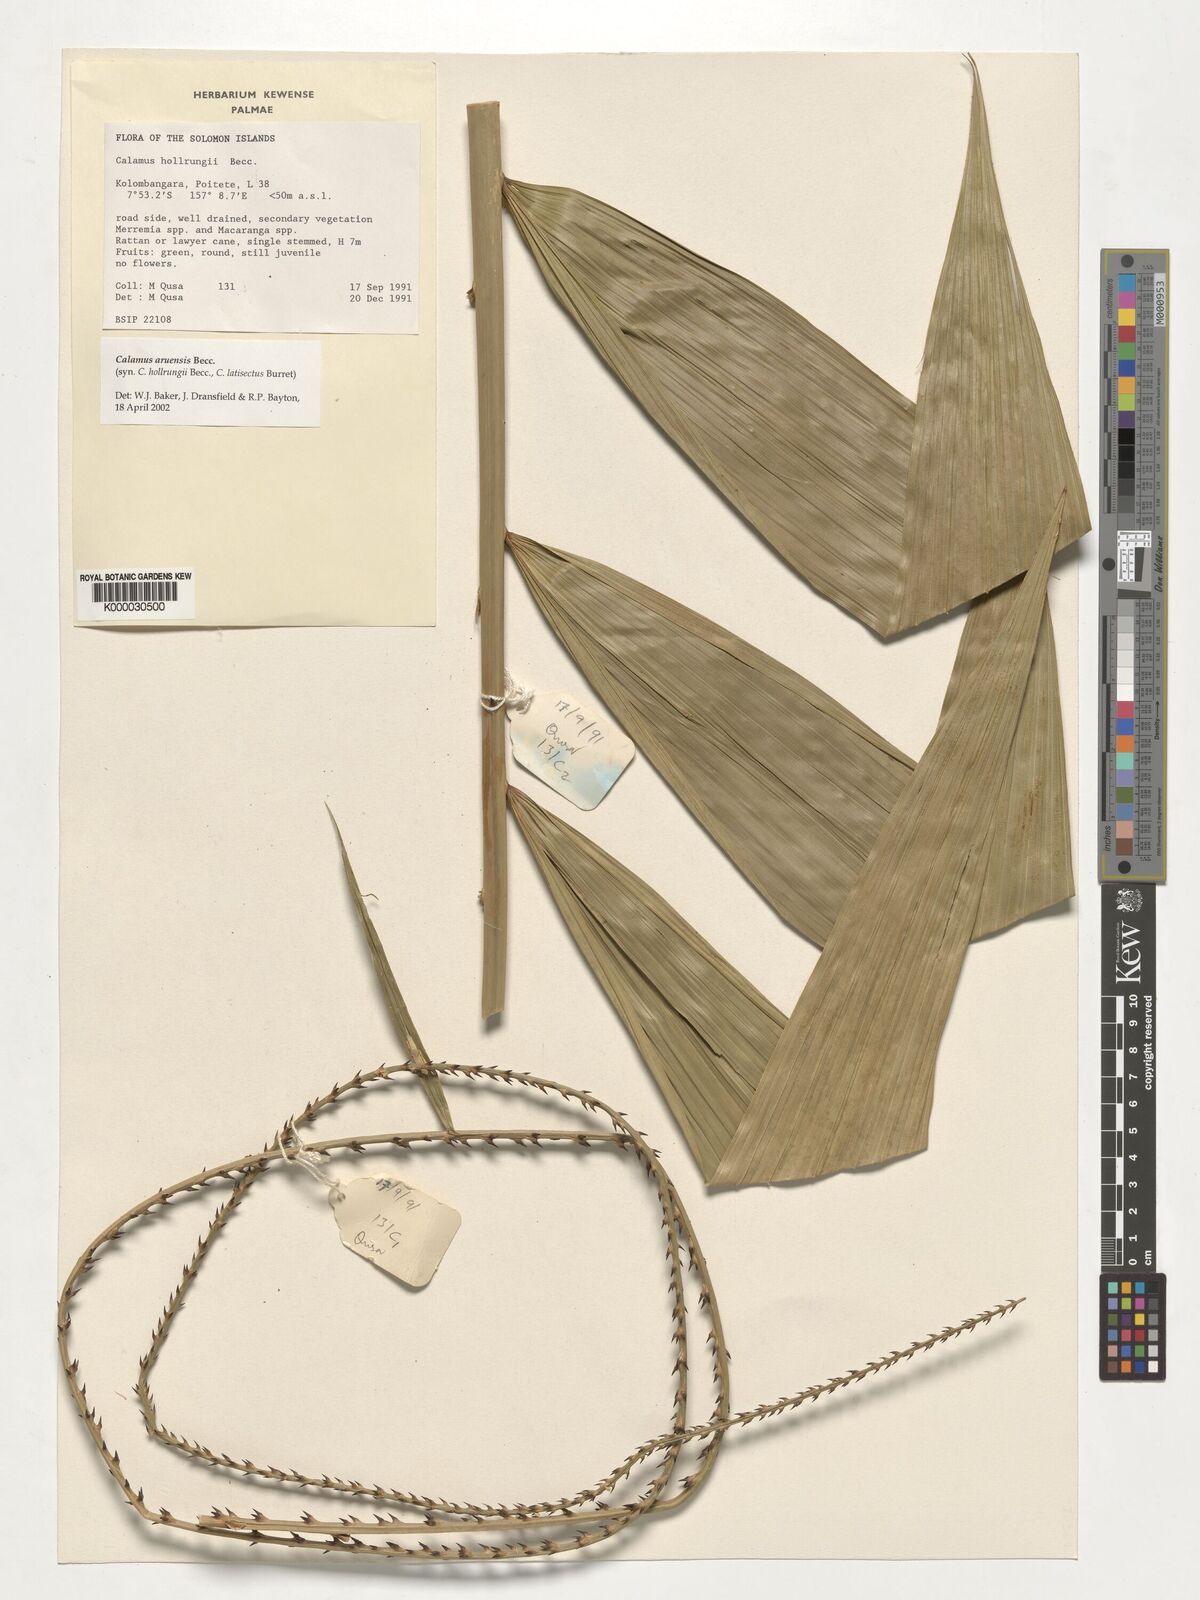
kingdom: Plantae
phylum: Tracheophyta
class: Liliopsida
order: Arecales
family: Arecaceae
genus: Calamus
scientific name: Calamus aruensis
